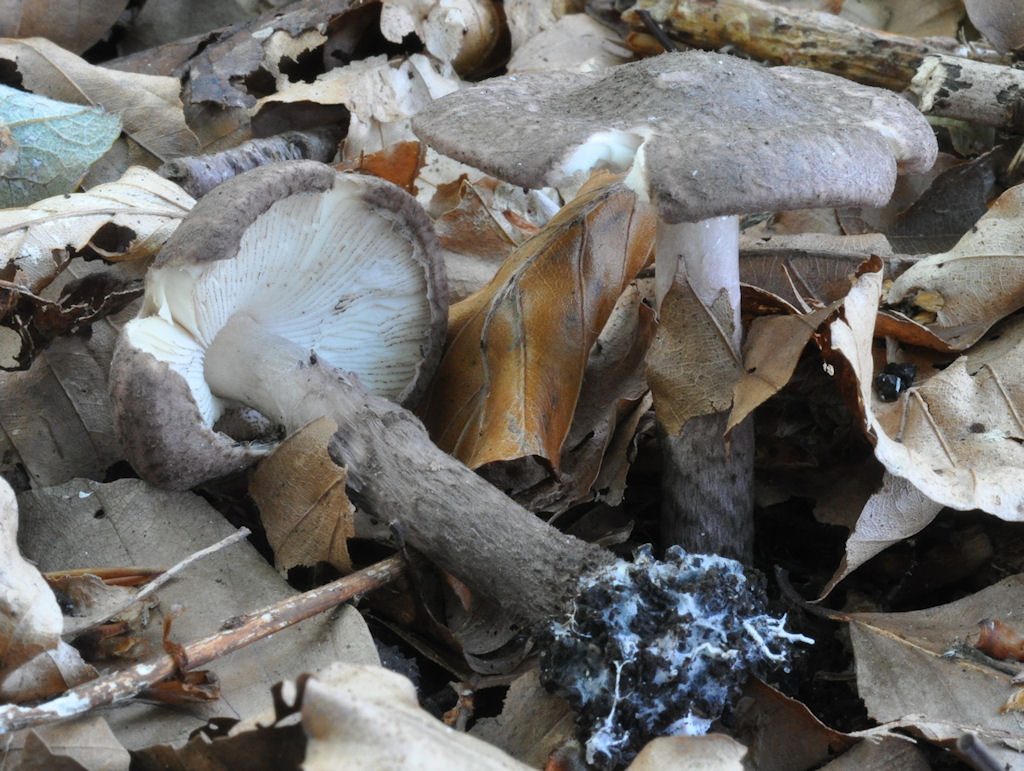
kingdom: Fungi
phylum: Basidiomycota
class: Agaricomycetes
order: Agaricales
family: Agaricaceae
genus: Lepiota
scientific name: Lepiota fuscovinacea
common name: vinrød parasolhat
